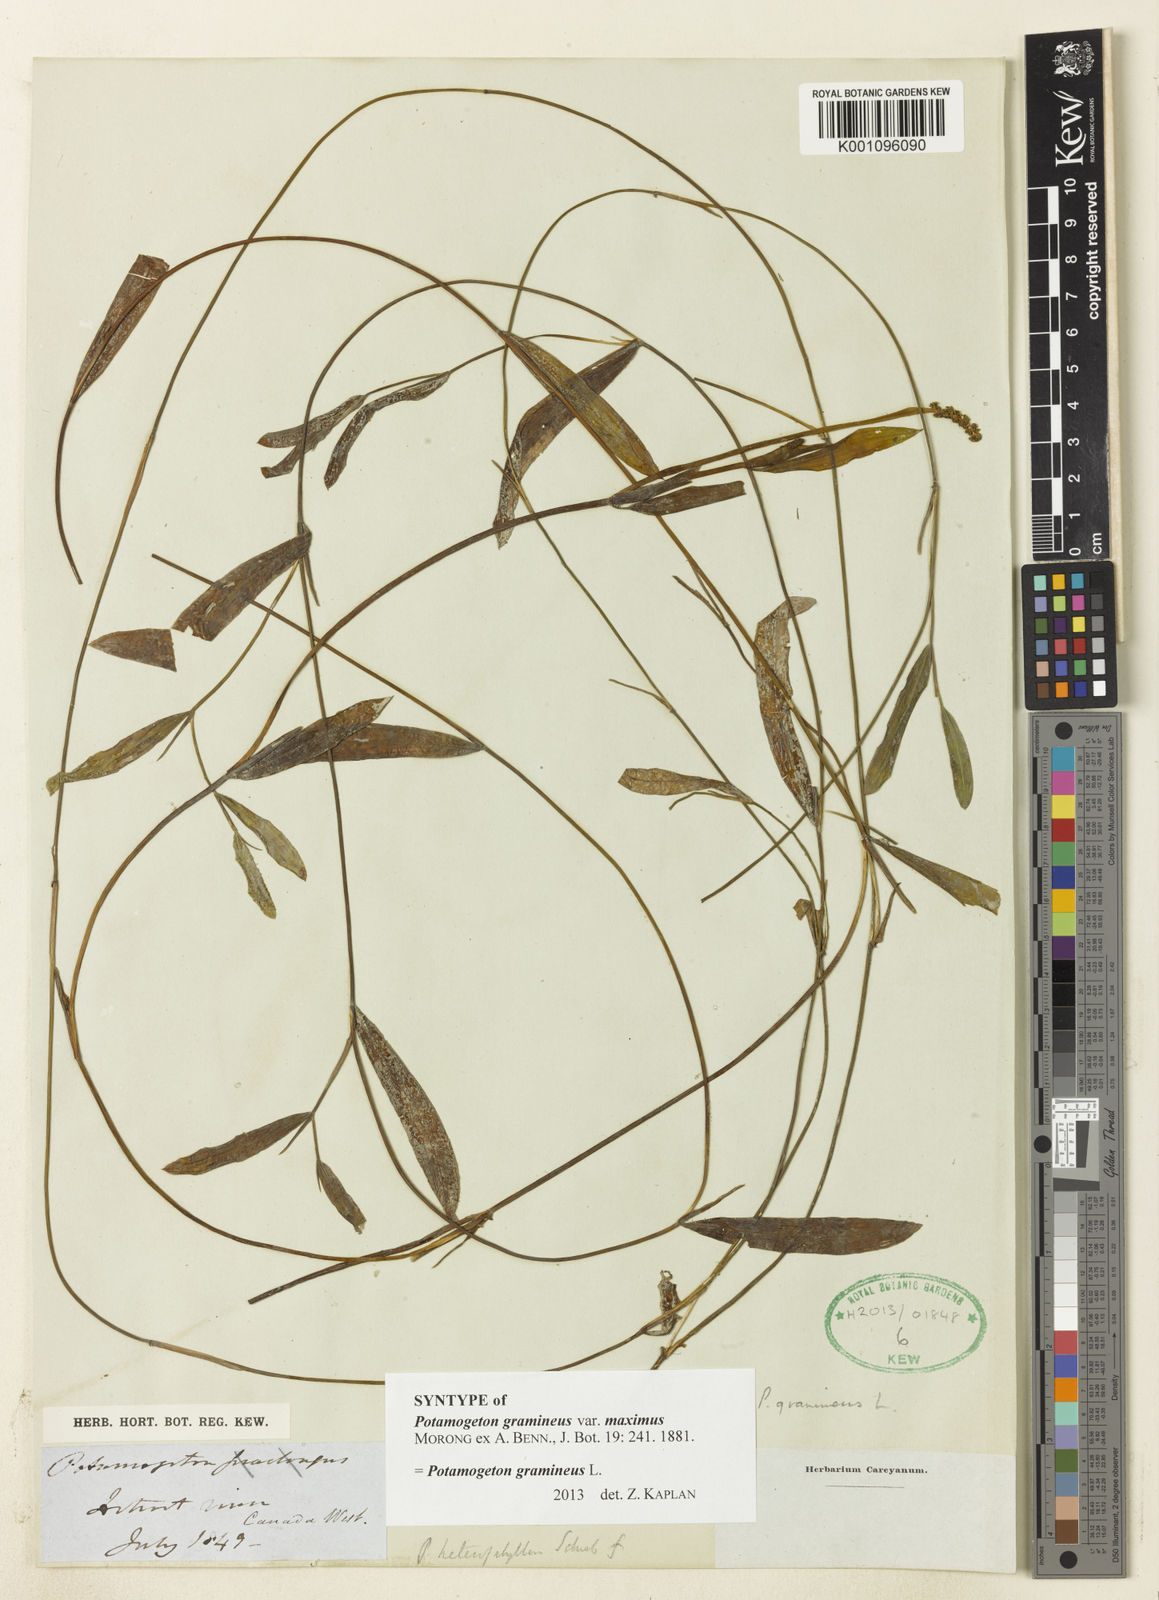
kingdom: Plantae
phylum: Tracheophyta
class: Liliopsida
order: Alismatales
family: Potamogetonaceae
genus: Potamogeton
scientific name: Potamogeton gramineus
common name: Various-leaved pondweed
